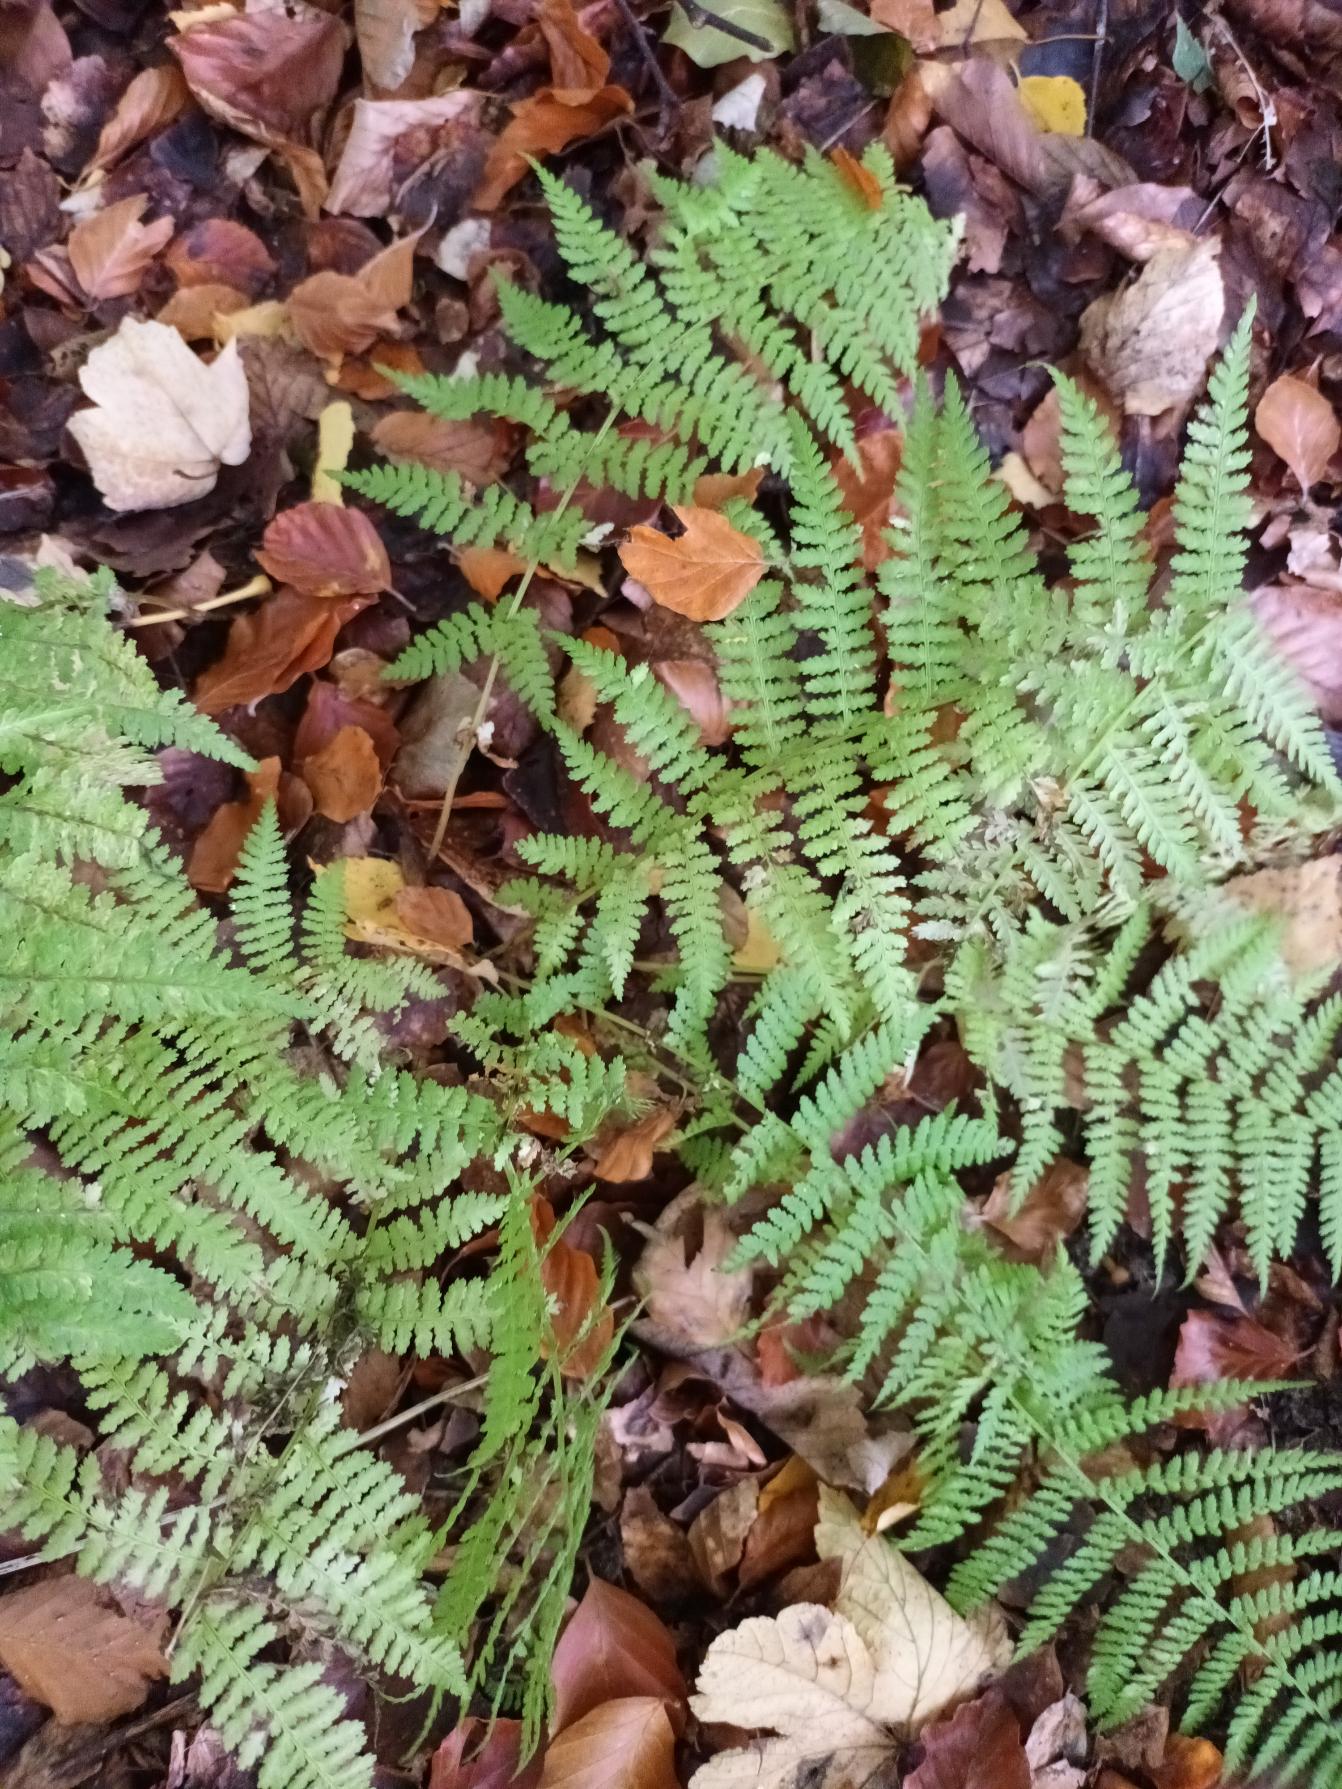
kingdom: Plantae
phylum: Tracheophyta
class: Polypodiopsida
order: Polypodiales
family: Athyriaceae
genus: Athyrium
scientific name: Athyrium filix-femina
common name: Fjerbregne
